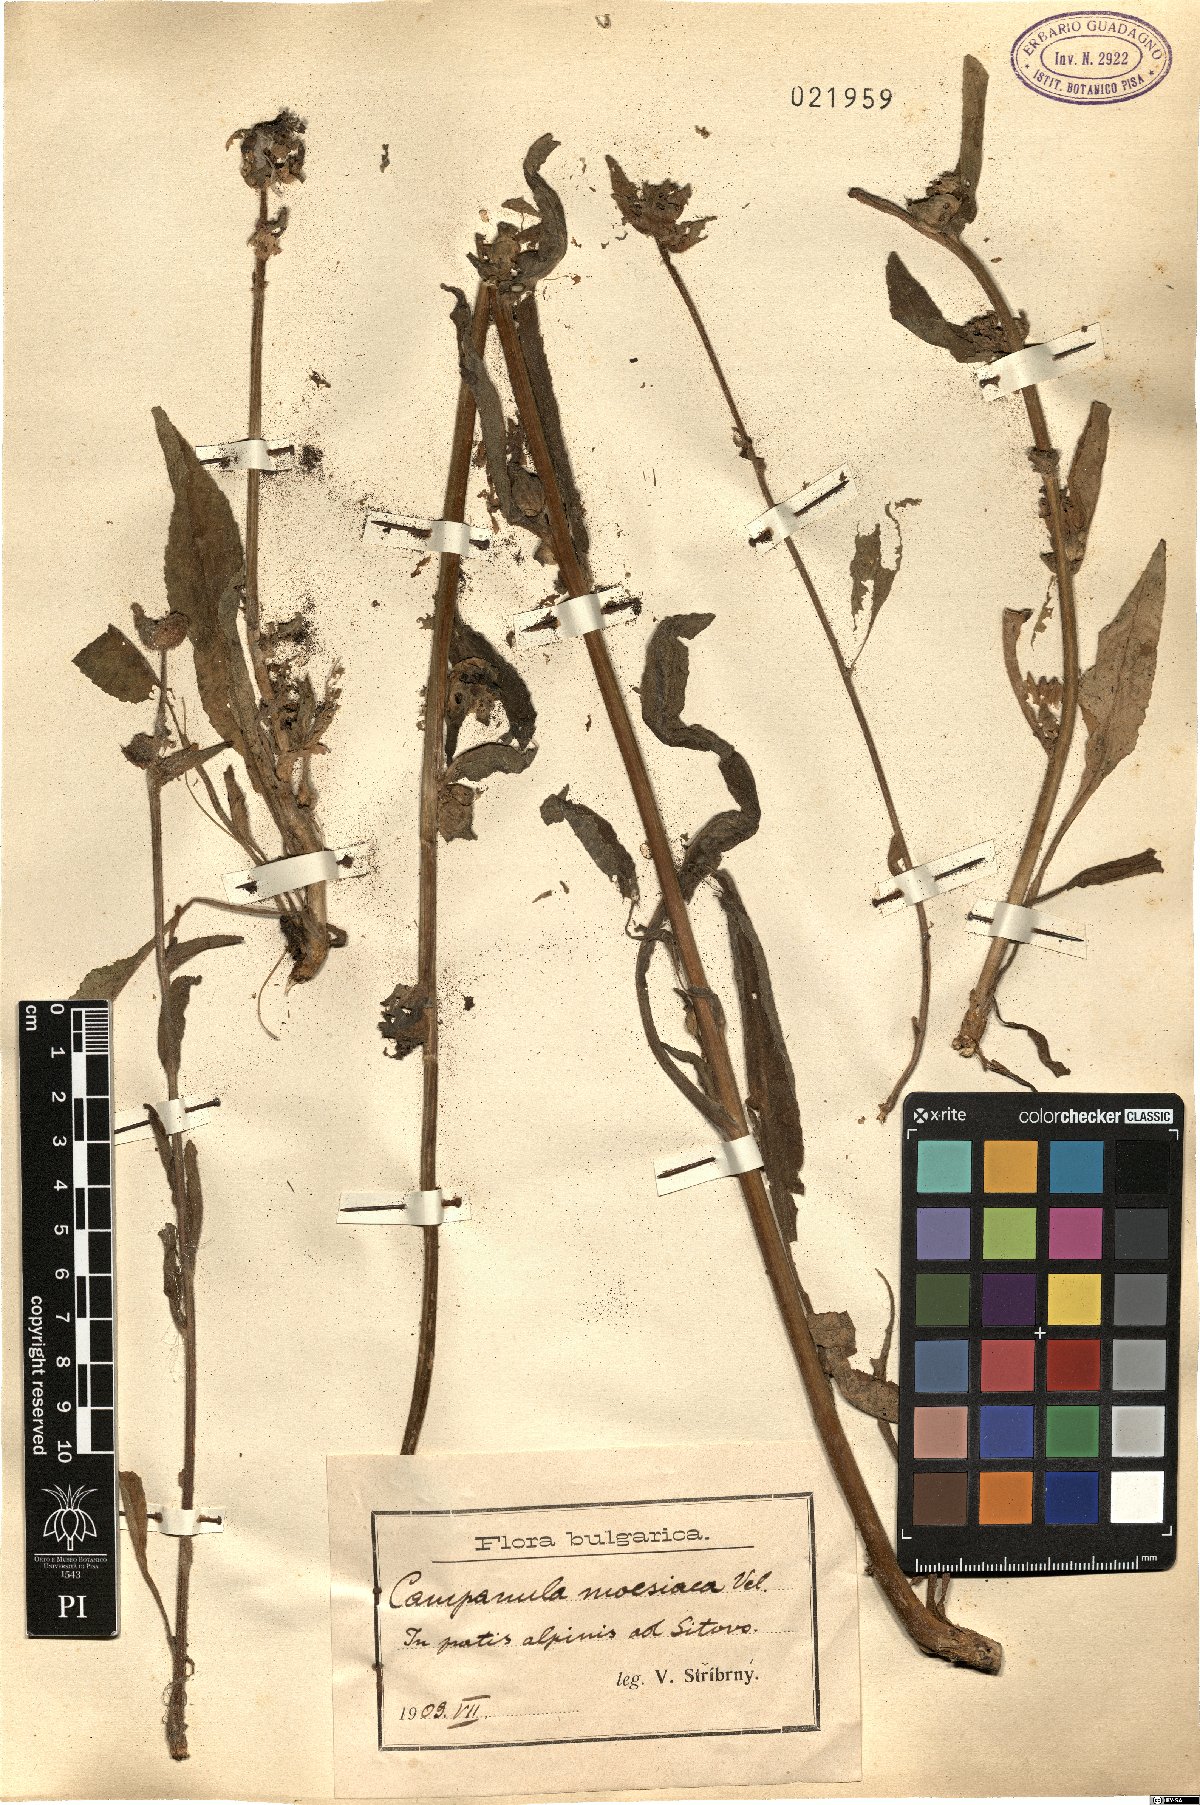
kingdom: Plantae
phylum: Tracheophyta
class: Magnoliopsida
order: Asterales
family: Campanulaceae
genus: Campanula
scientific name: Campanula moesiaca
